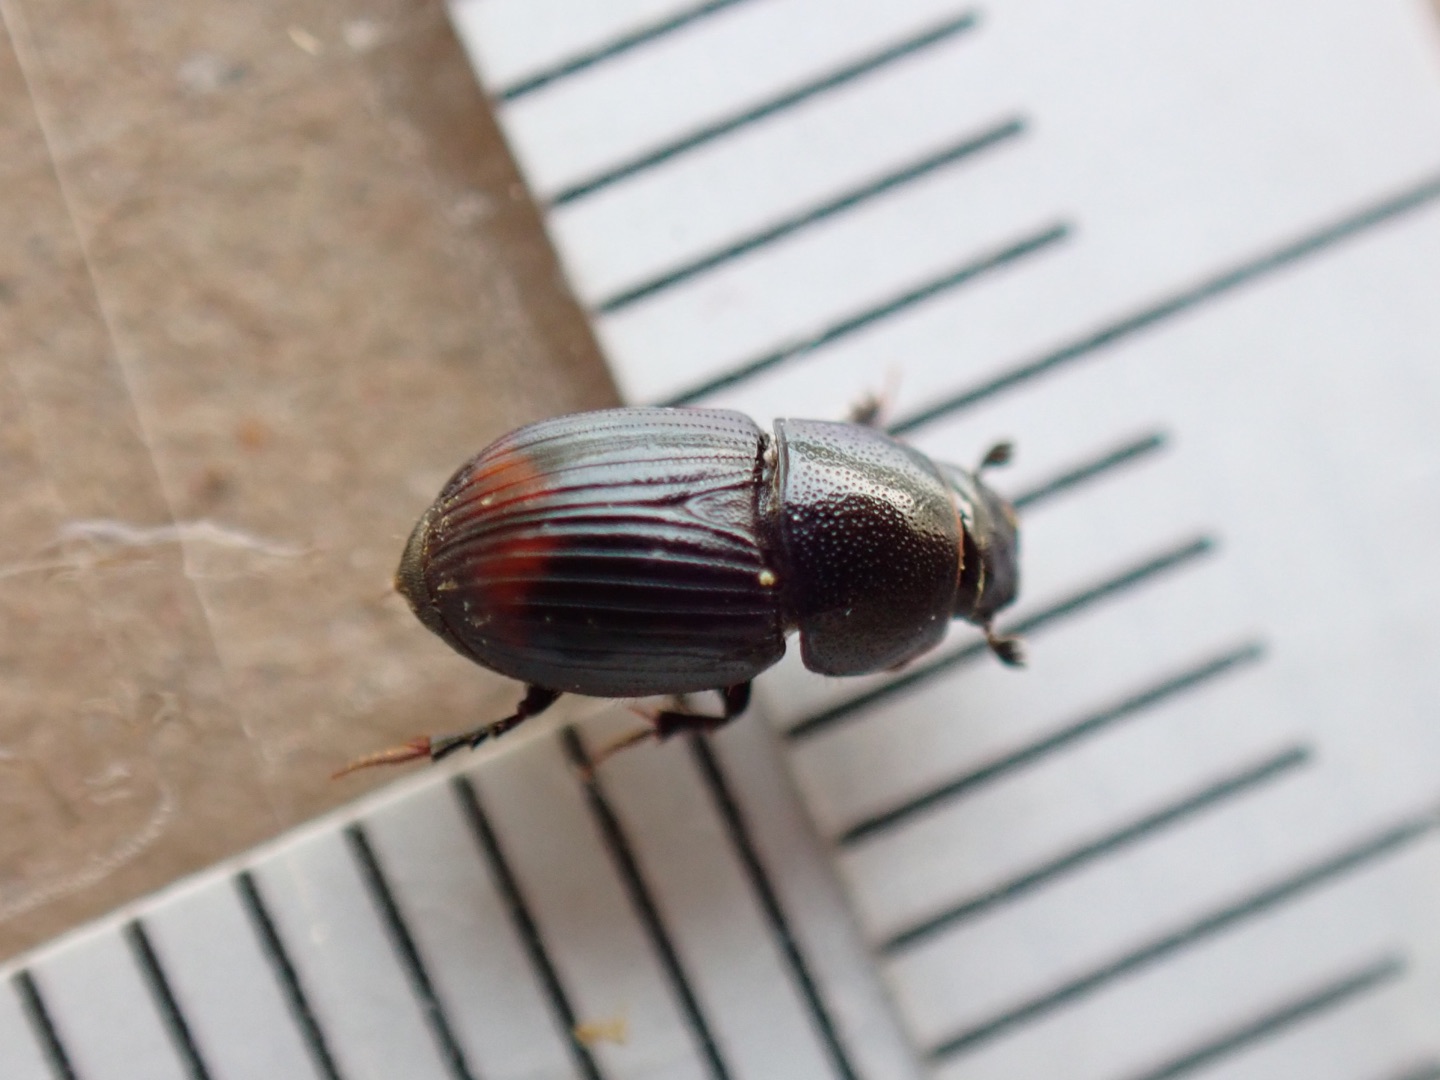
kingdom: Animalia
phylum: Arthropoda
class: Insecta
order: Coleoptera
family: Scarabaeidae
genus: Otophorus
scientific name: Otophorus haemorrhoidalis
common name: Rødhalet møgbille
